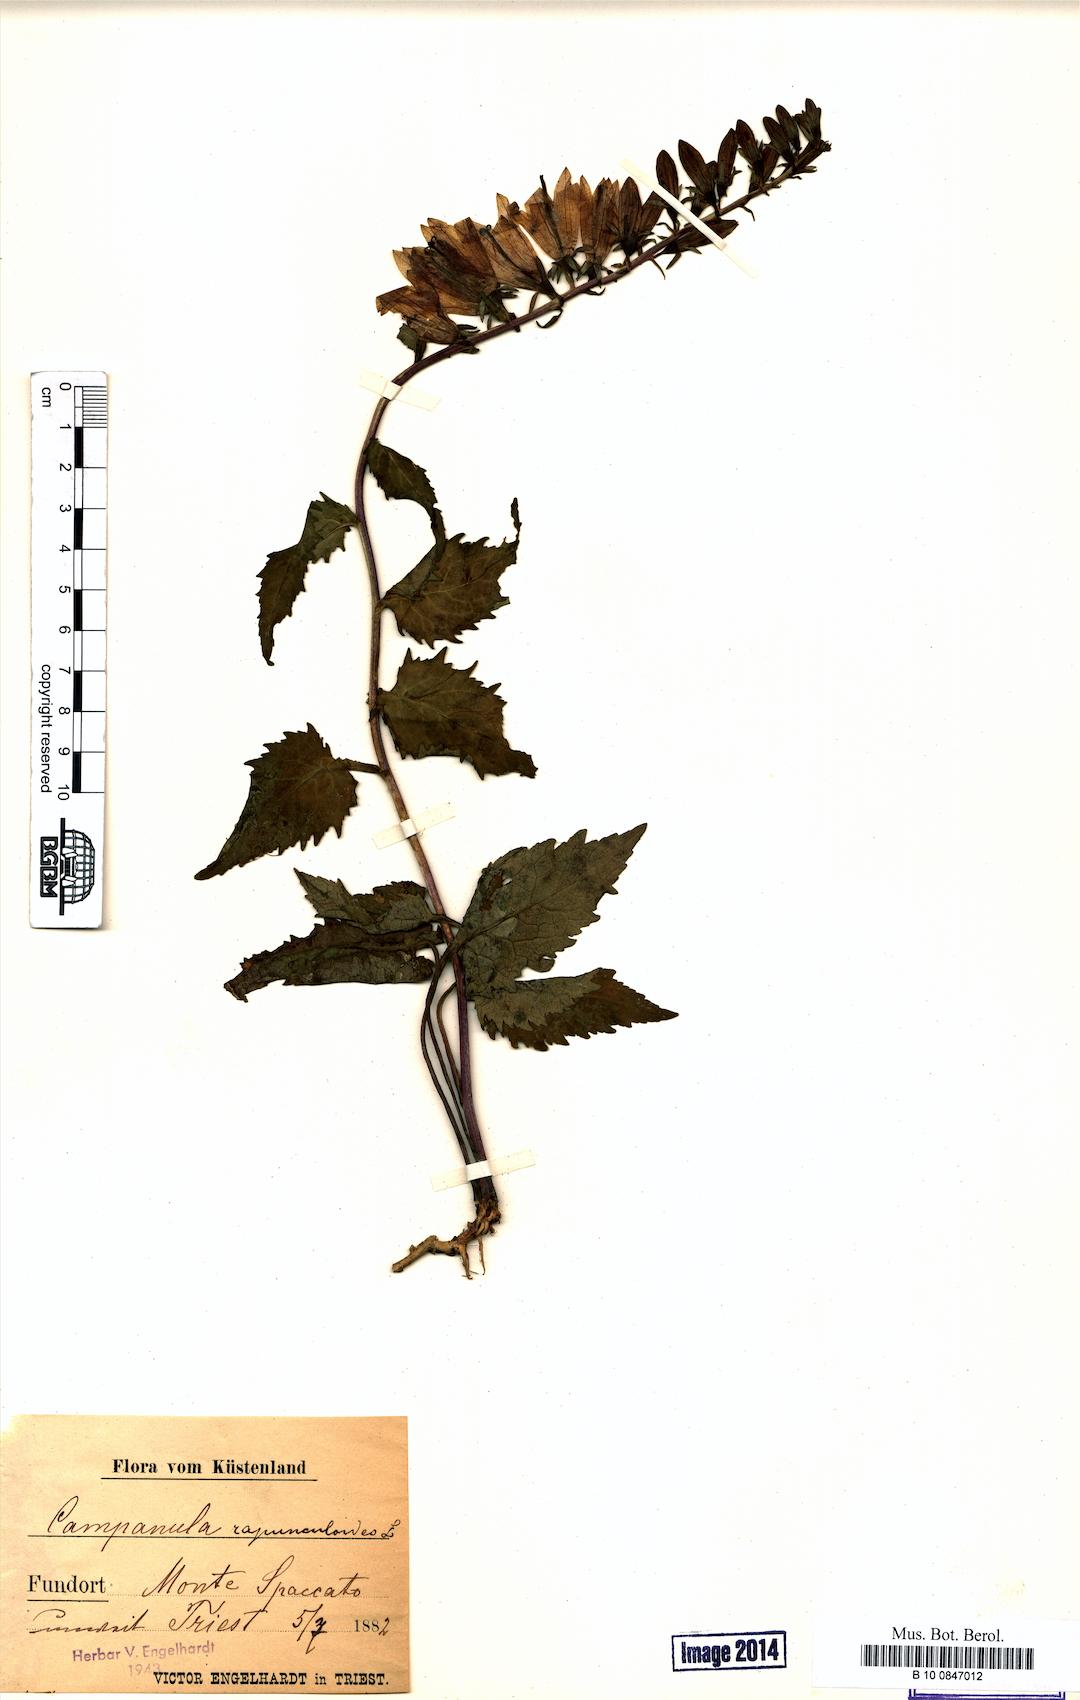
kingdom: Plantae
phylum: Tracheophyta
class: Magnoliopsida
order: Asterales
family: Campanulaceae
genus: Campanula
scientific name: Campanula rapunculoides
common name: Creeping bellflower
